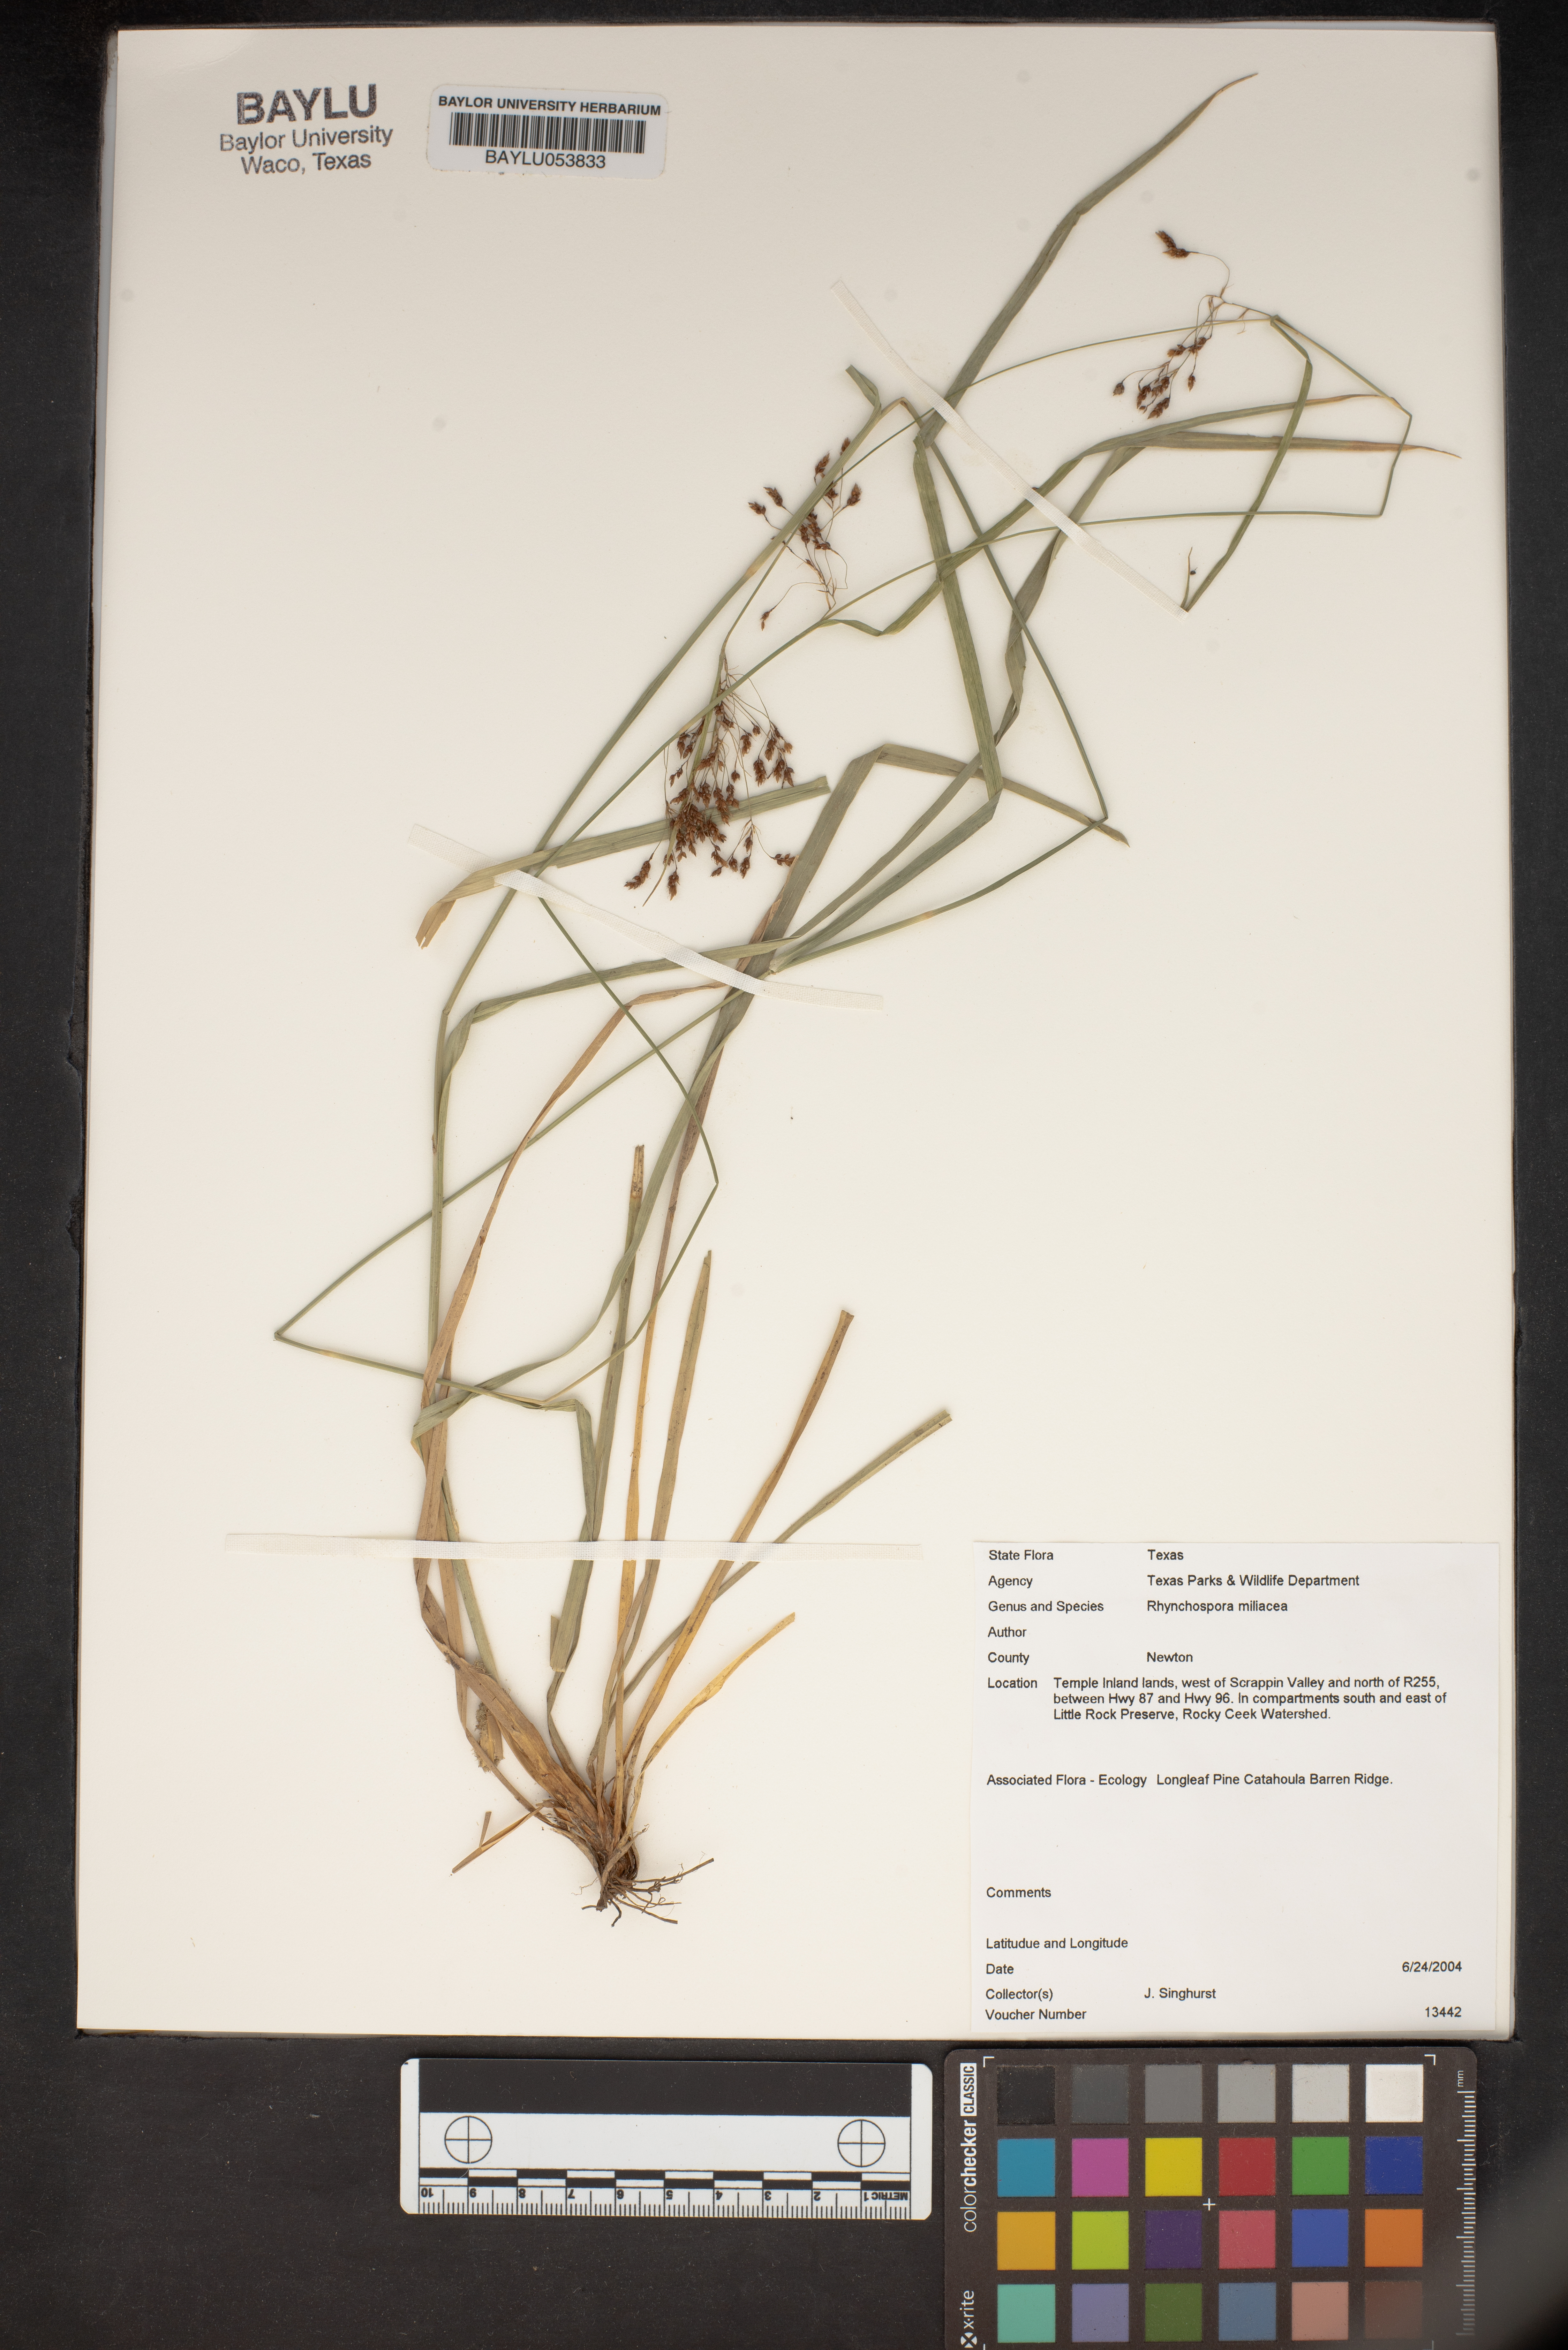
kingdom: Plantae
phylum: Tracheophyta
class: Liliopsida
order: Poales
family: Cyperaceae
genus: Rhynchospora
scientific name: Rhynchospora miliacea
